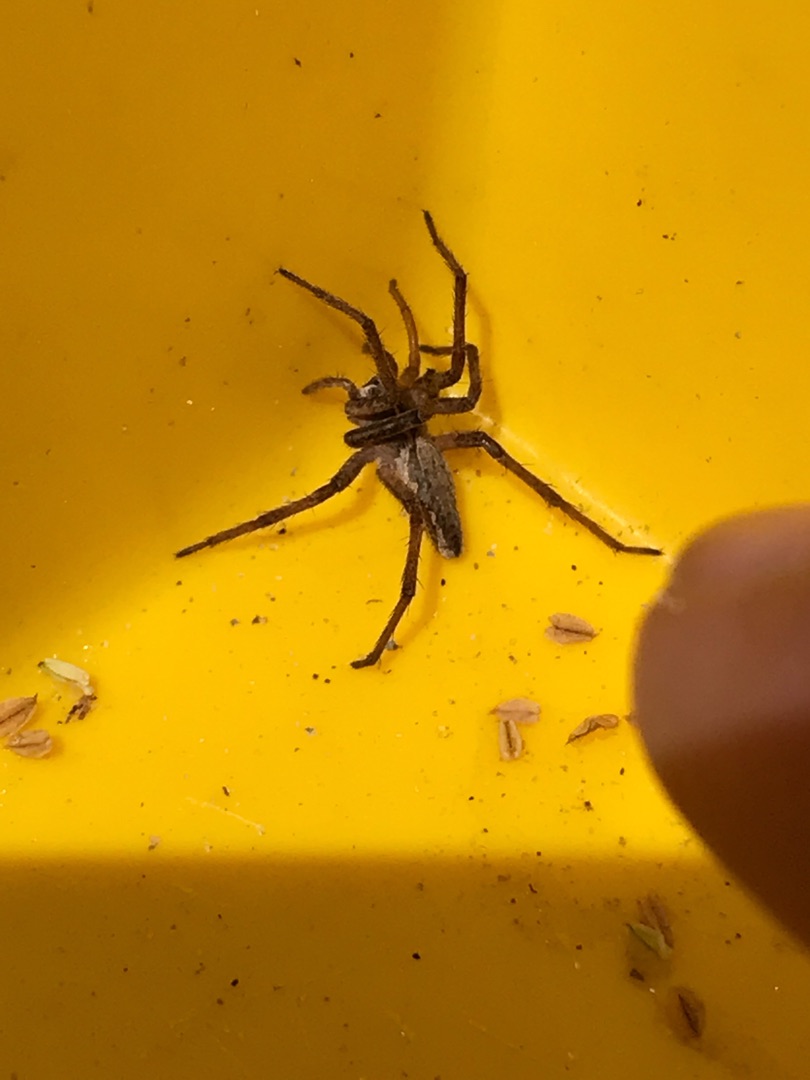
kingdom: Animalia
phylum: Arthropoda
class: Arachnida
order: Araneae
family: Pisauridae
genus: Pisaura
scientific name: Pisaura mirabilis
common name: Almindelig rovedderkop
